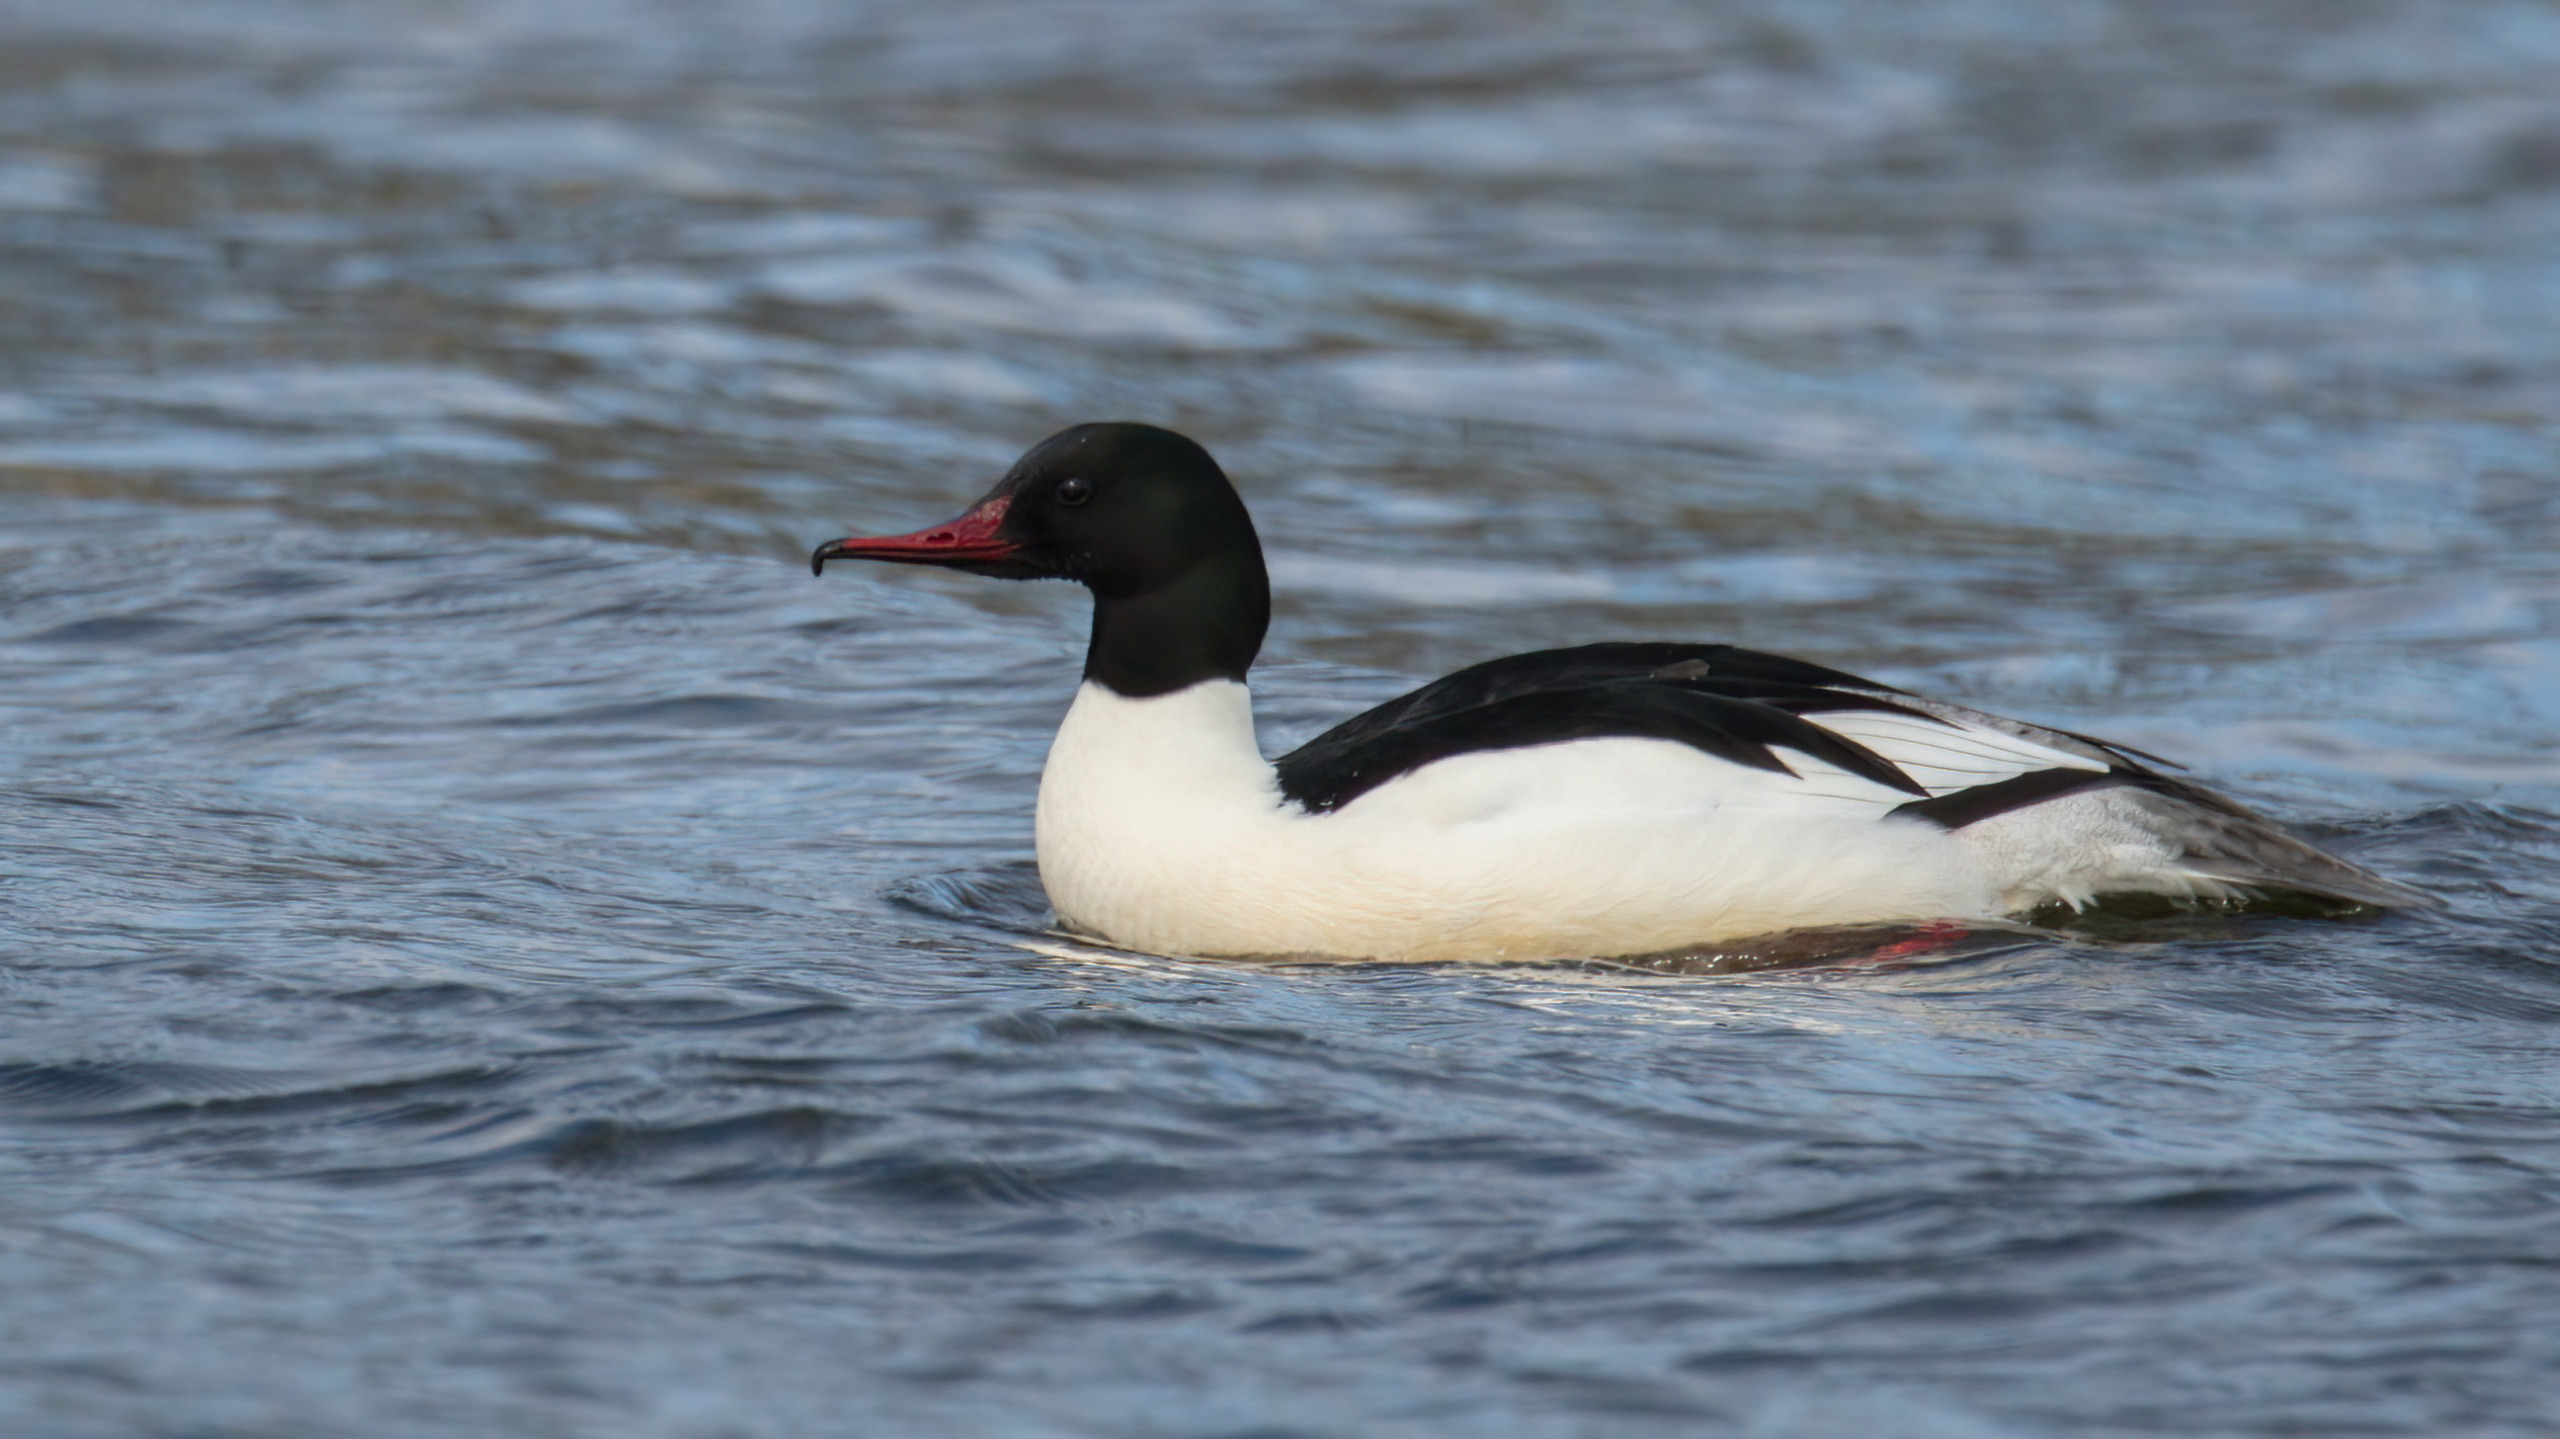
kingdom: Animalia
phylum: Chordata
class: Aves
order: Anseriformes
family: Anatidae
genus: Mergus
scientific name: Mergus merganser
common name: Stor skallesluger
